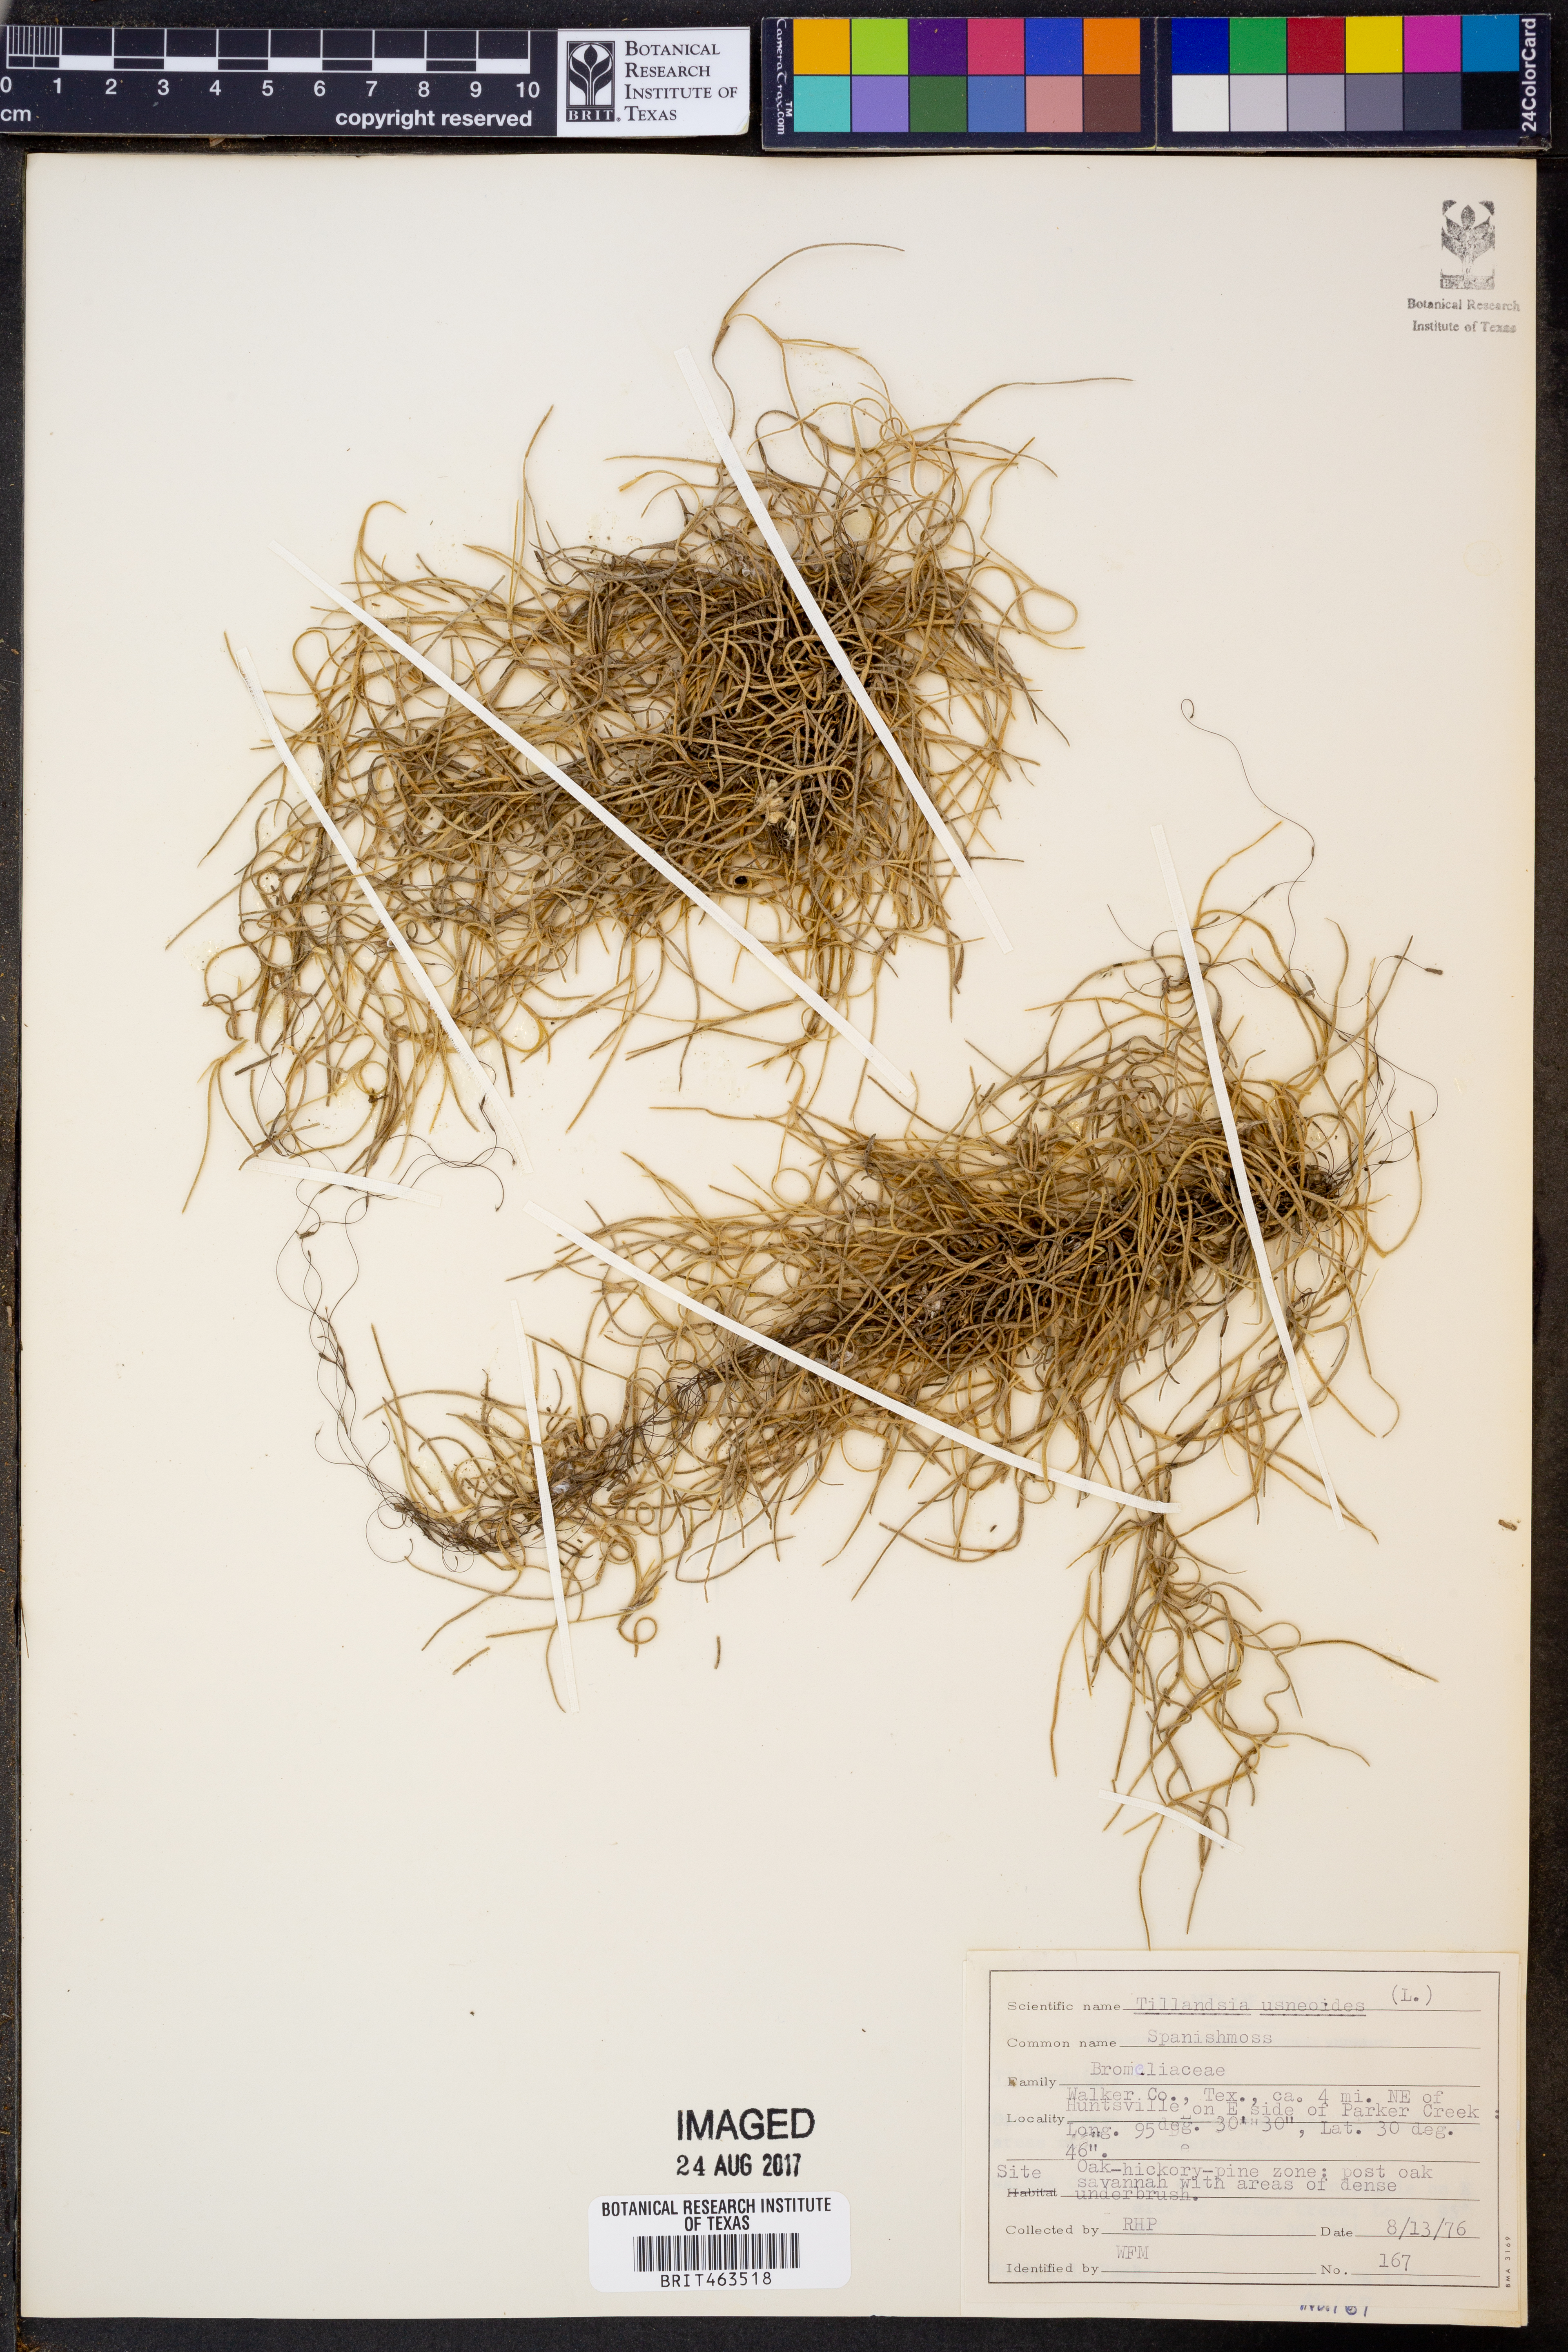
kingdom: Plantae
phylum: Tracheophyta
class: Liliopsida
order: Poales
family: Bromeliaceae
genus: Tillandsia
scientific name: Tillandsia usneoides
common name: Spanish moss
